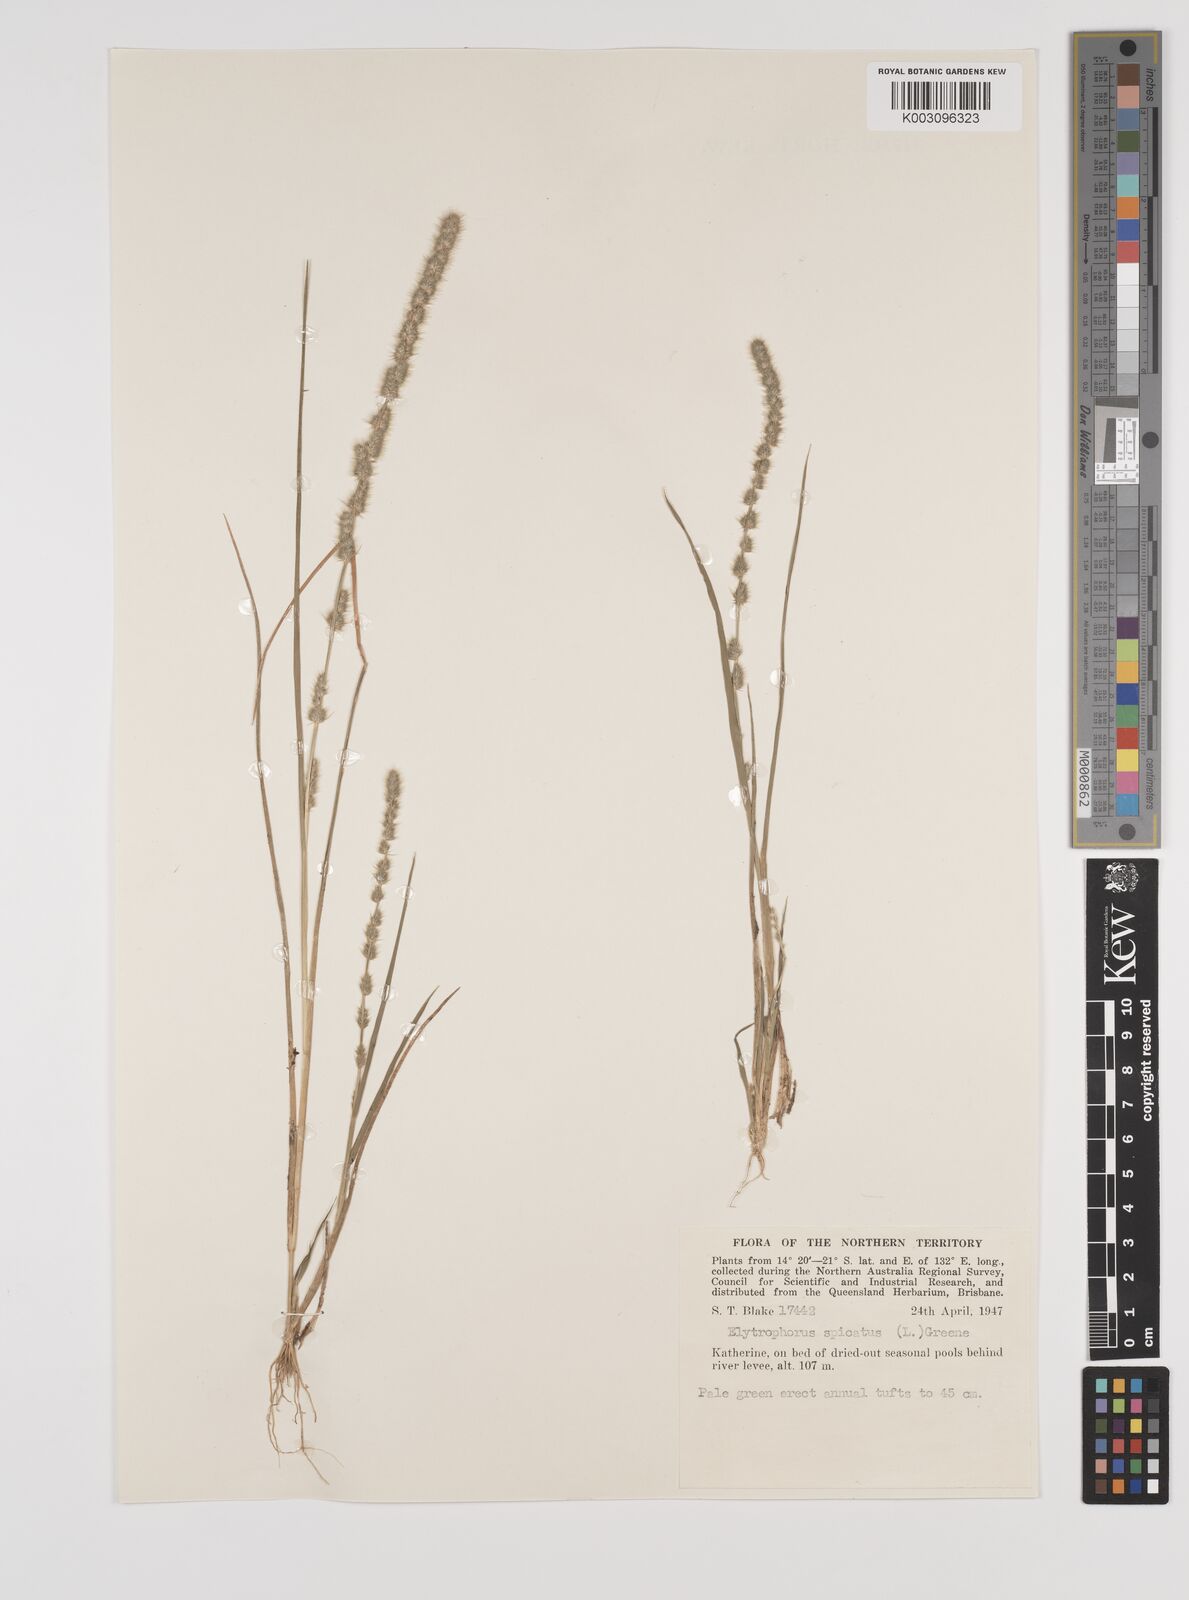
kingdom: Plantae
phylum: Tracheophyta
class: Liliopsida
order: Poales
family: Poaceae
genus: Elytrophorus
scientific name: Elytrophorus spicatus
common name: Spike grass
